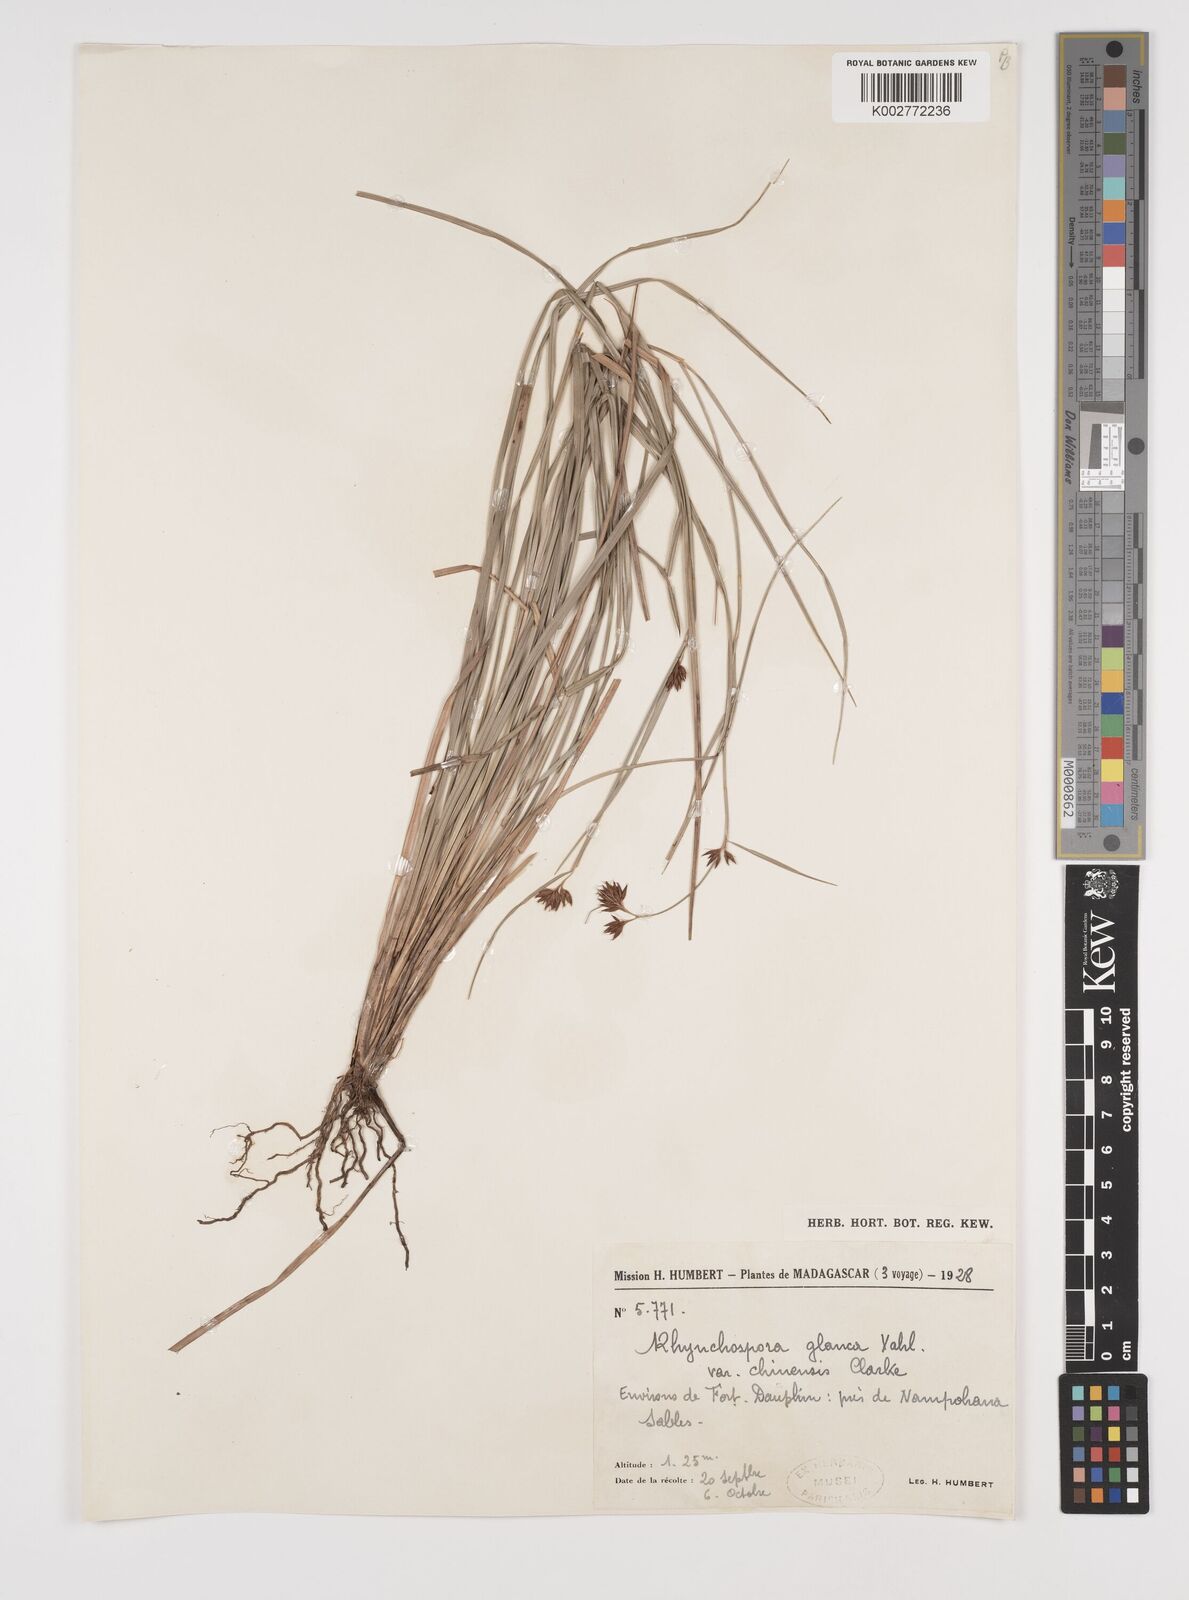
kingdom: Plantae
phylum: Tracheophyta
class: Liliopsida
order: Poales
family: Cyperaceae
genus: Rhynchospora
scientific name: Rhynchospora rugosa
